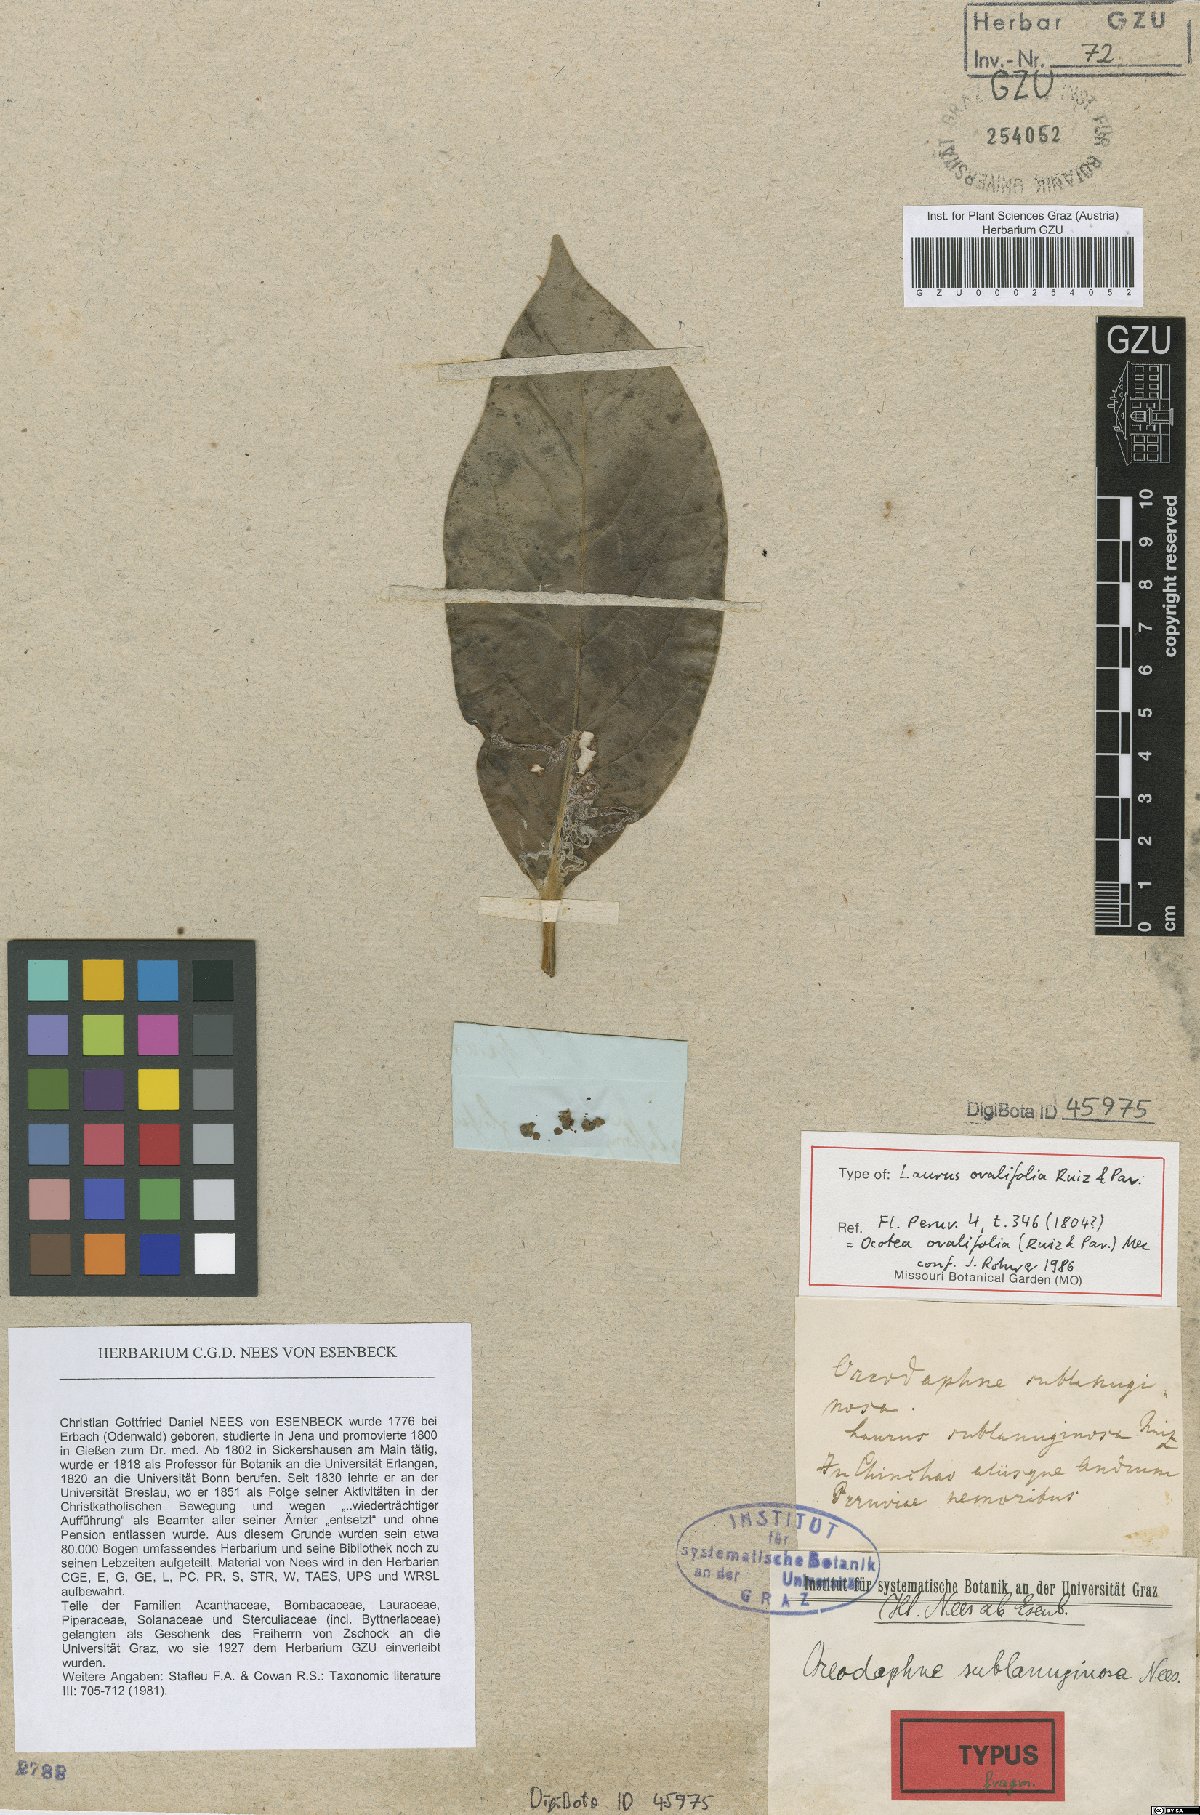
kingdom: Plantae
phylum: Tracheophyta
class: Magnoliopsida
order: Laurales
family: Lauraceae
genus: Ocotea
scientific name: Ocotea ovalifolia
